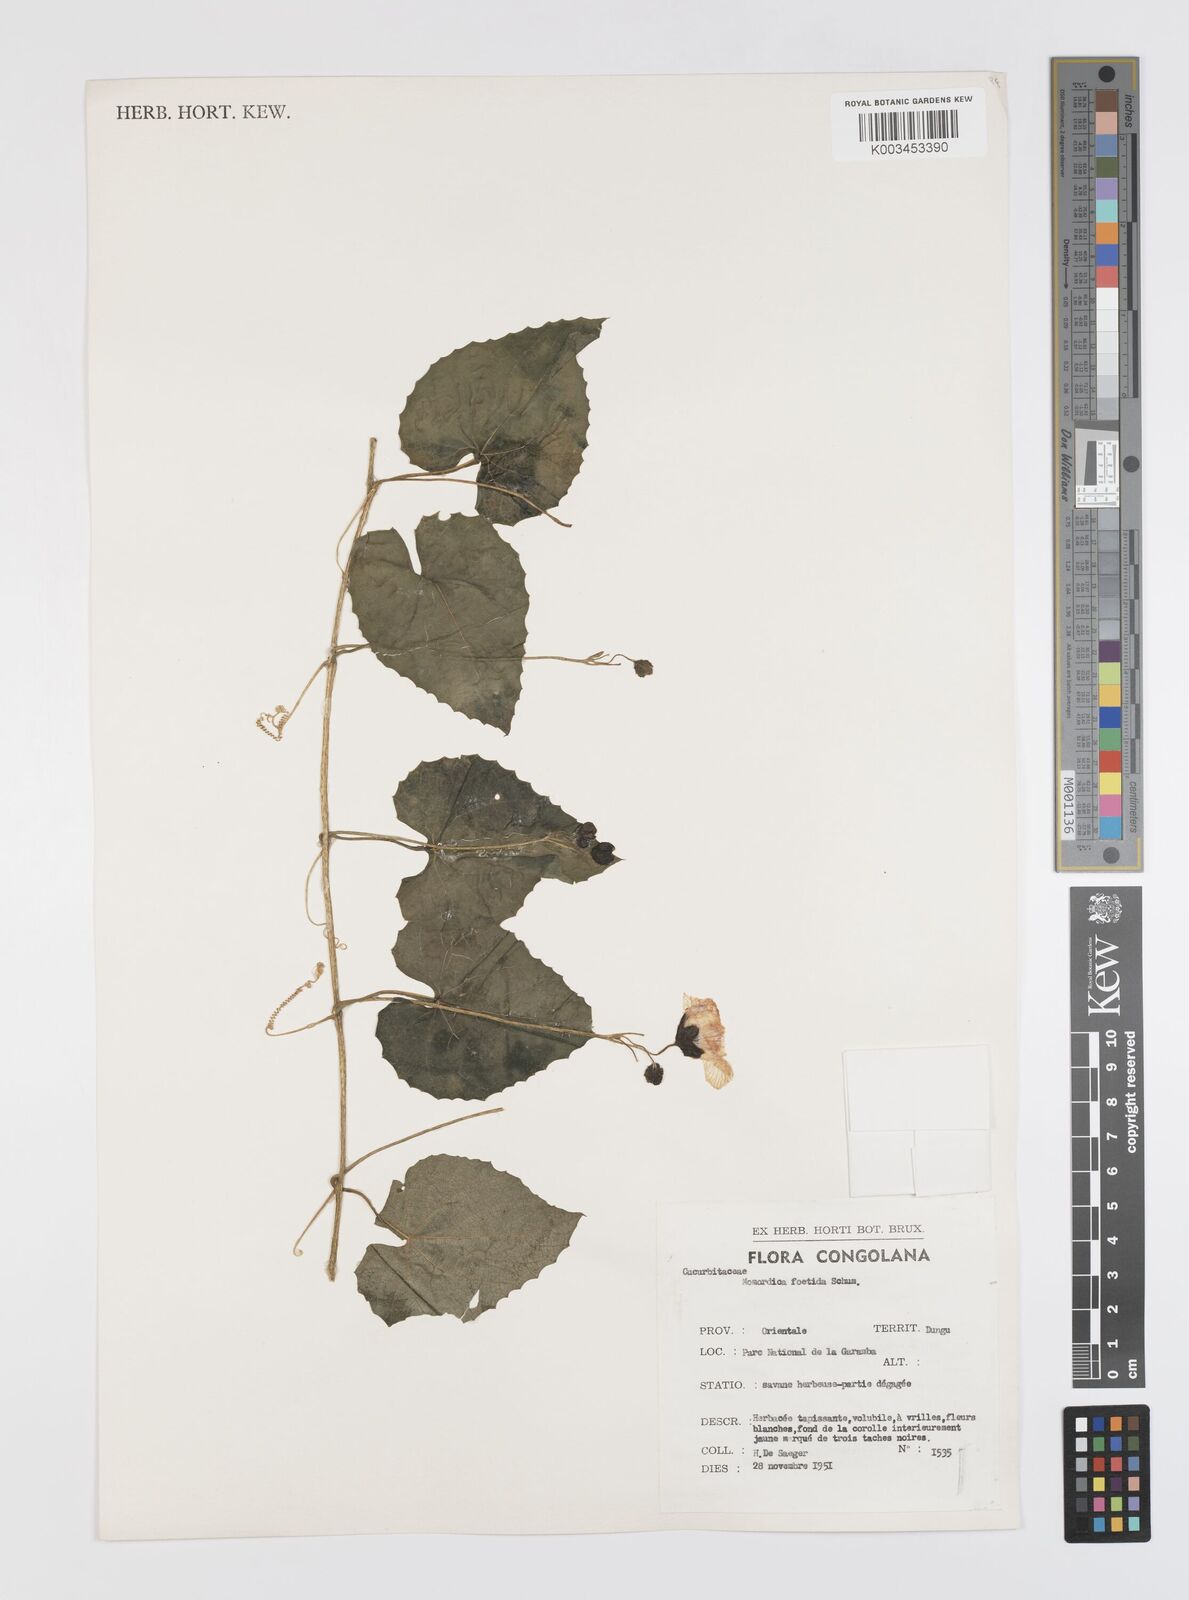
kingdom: Plantae
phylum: Tracheophyta
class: Magnoliopsida
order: Cucurbitales
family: Cucurbitaceae
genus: Momordica
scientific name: Momordica foetida
